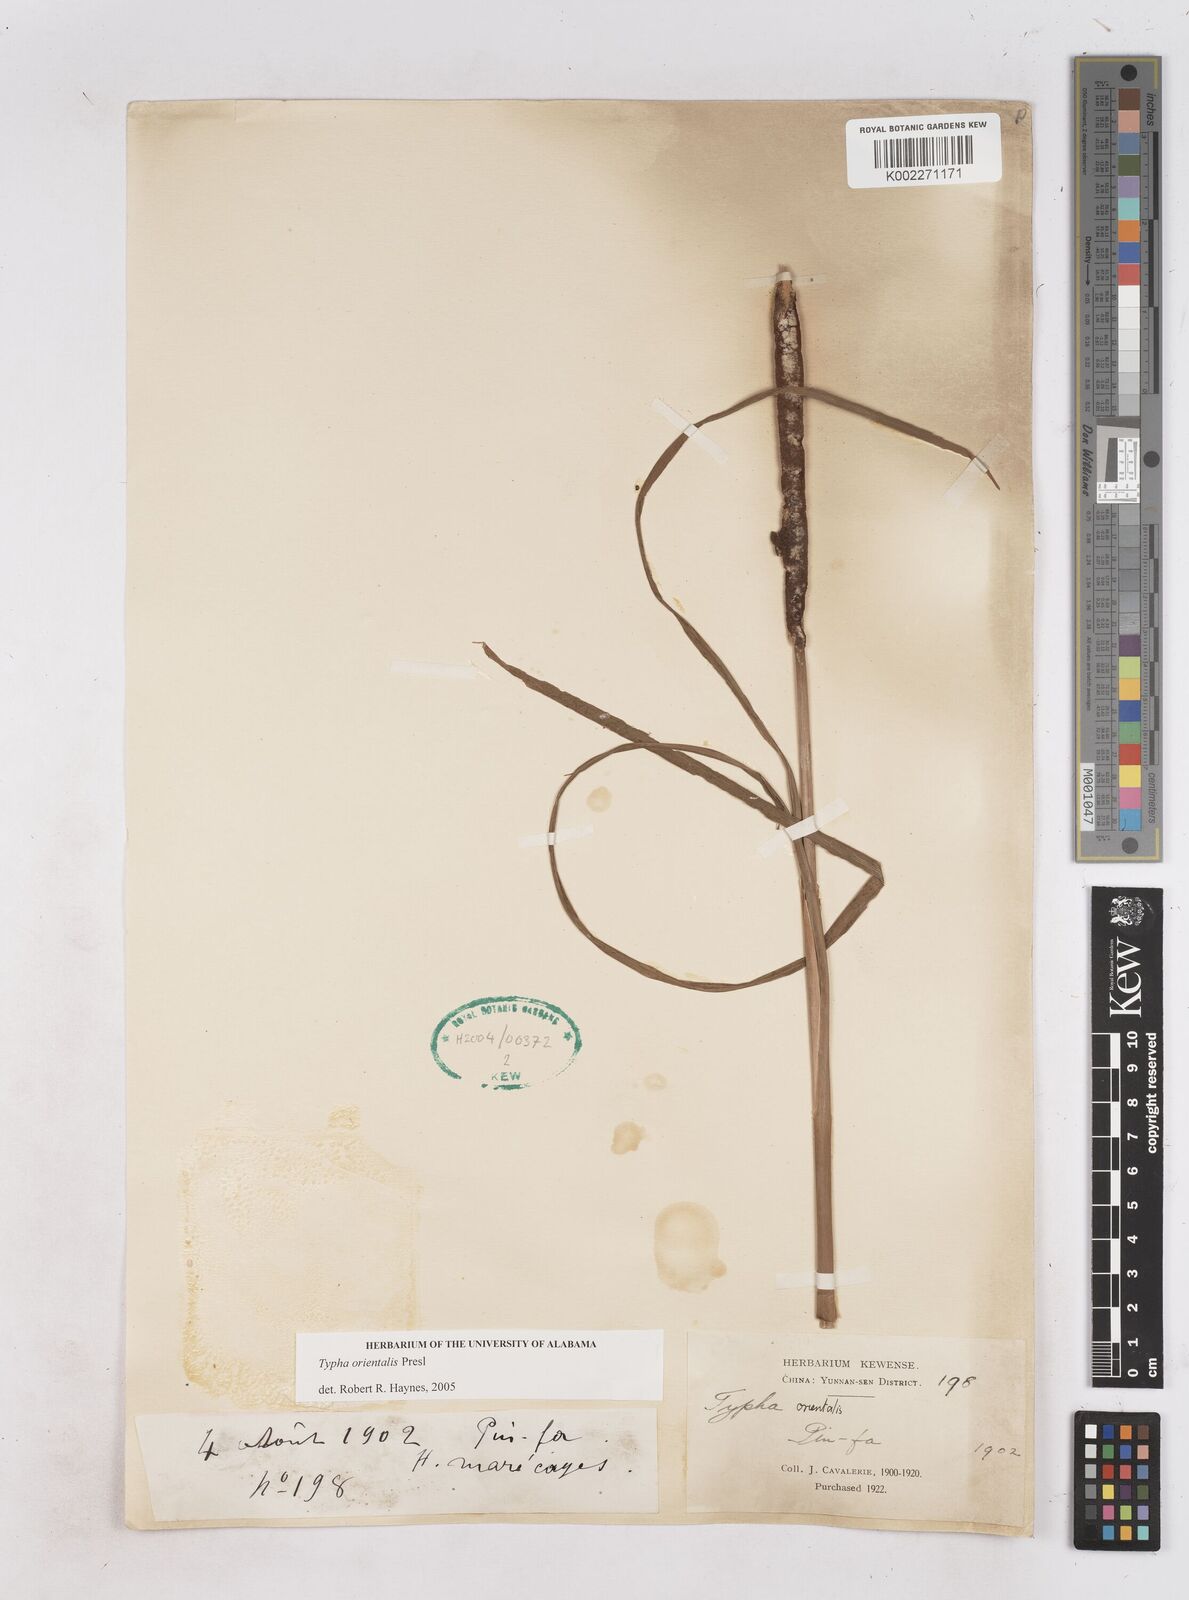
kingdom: Plantae
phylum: Tracheophyta
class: Liliopsida
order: Poales
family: Typhaceae
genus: Typha
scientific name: Typha shuttleworthii
